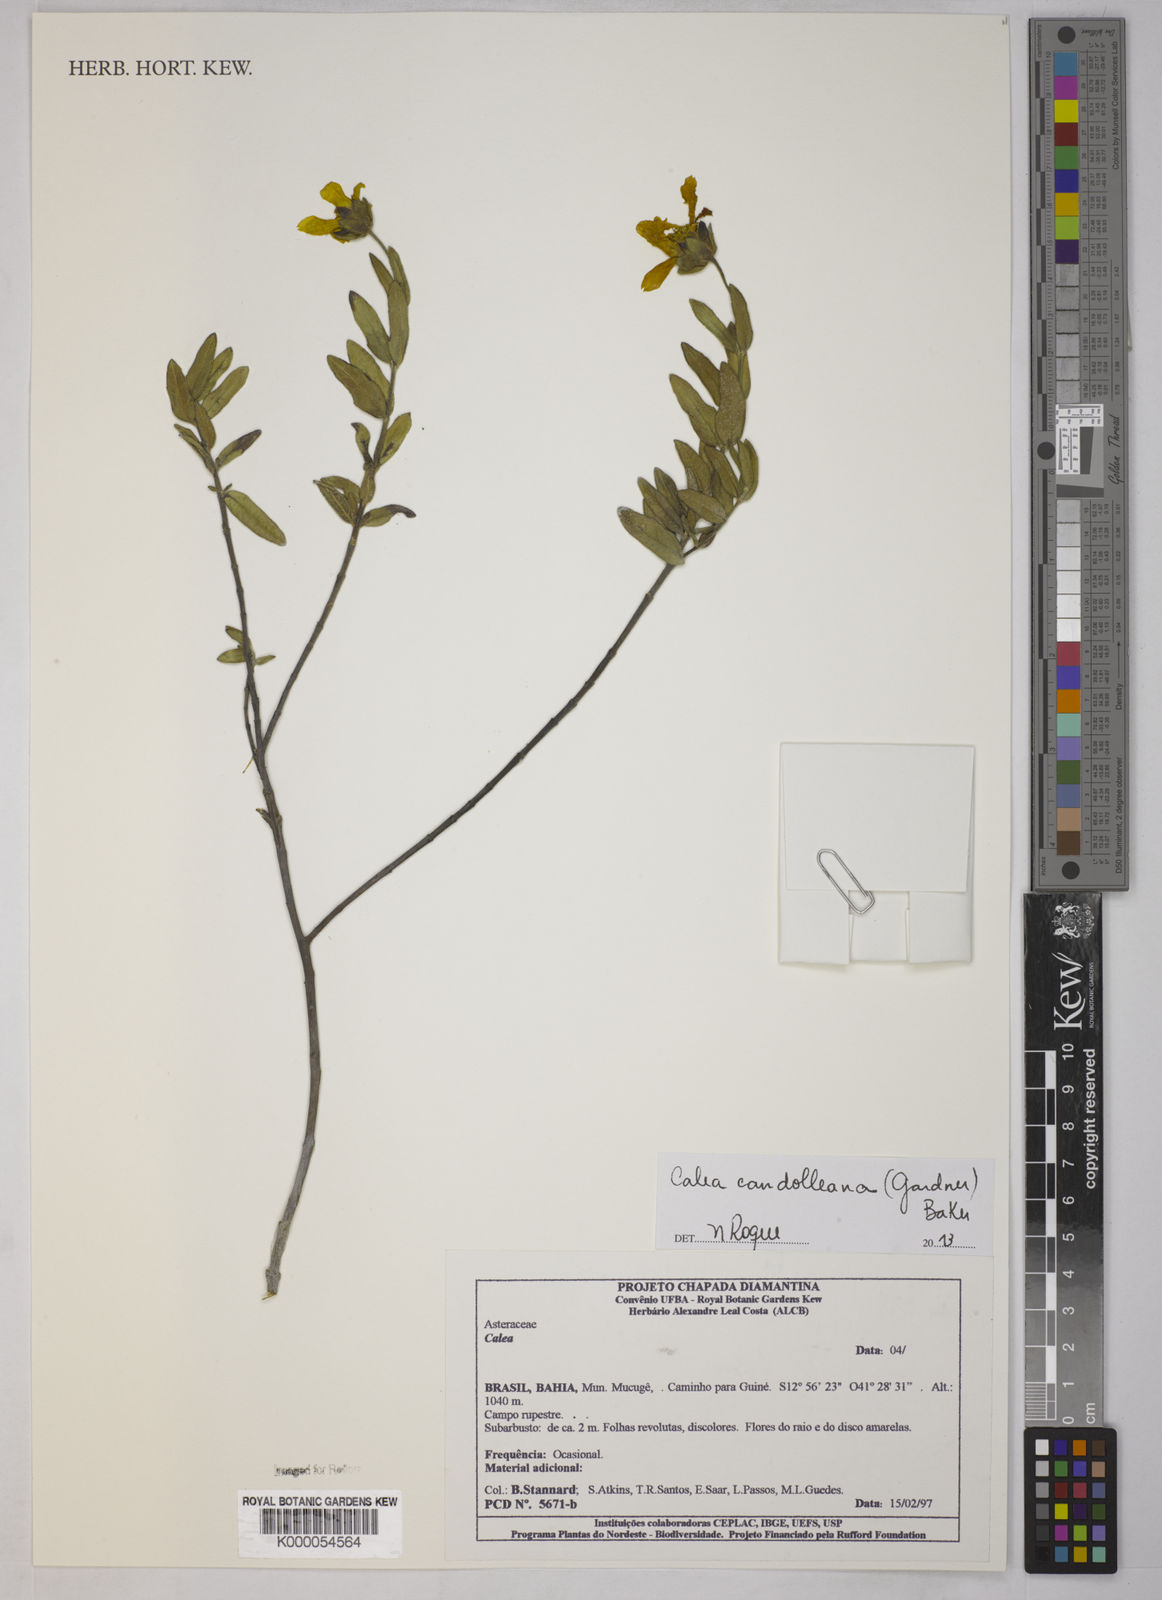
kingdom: Plantae
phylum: Tracheophyta
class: Magnoliopsida
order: Asterales
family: Asteraceae
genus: Calea
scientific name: Calea
